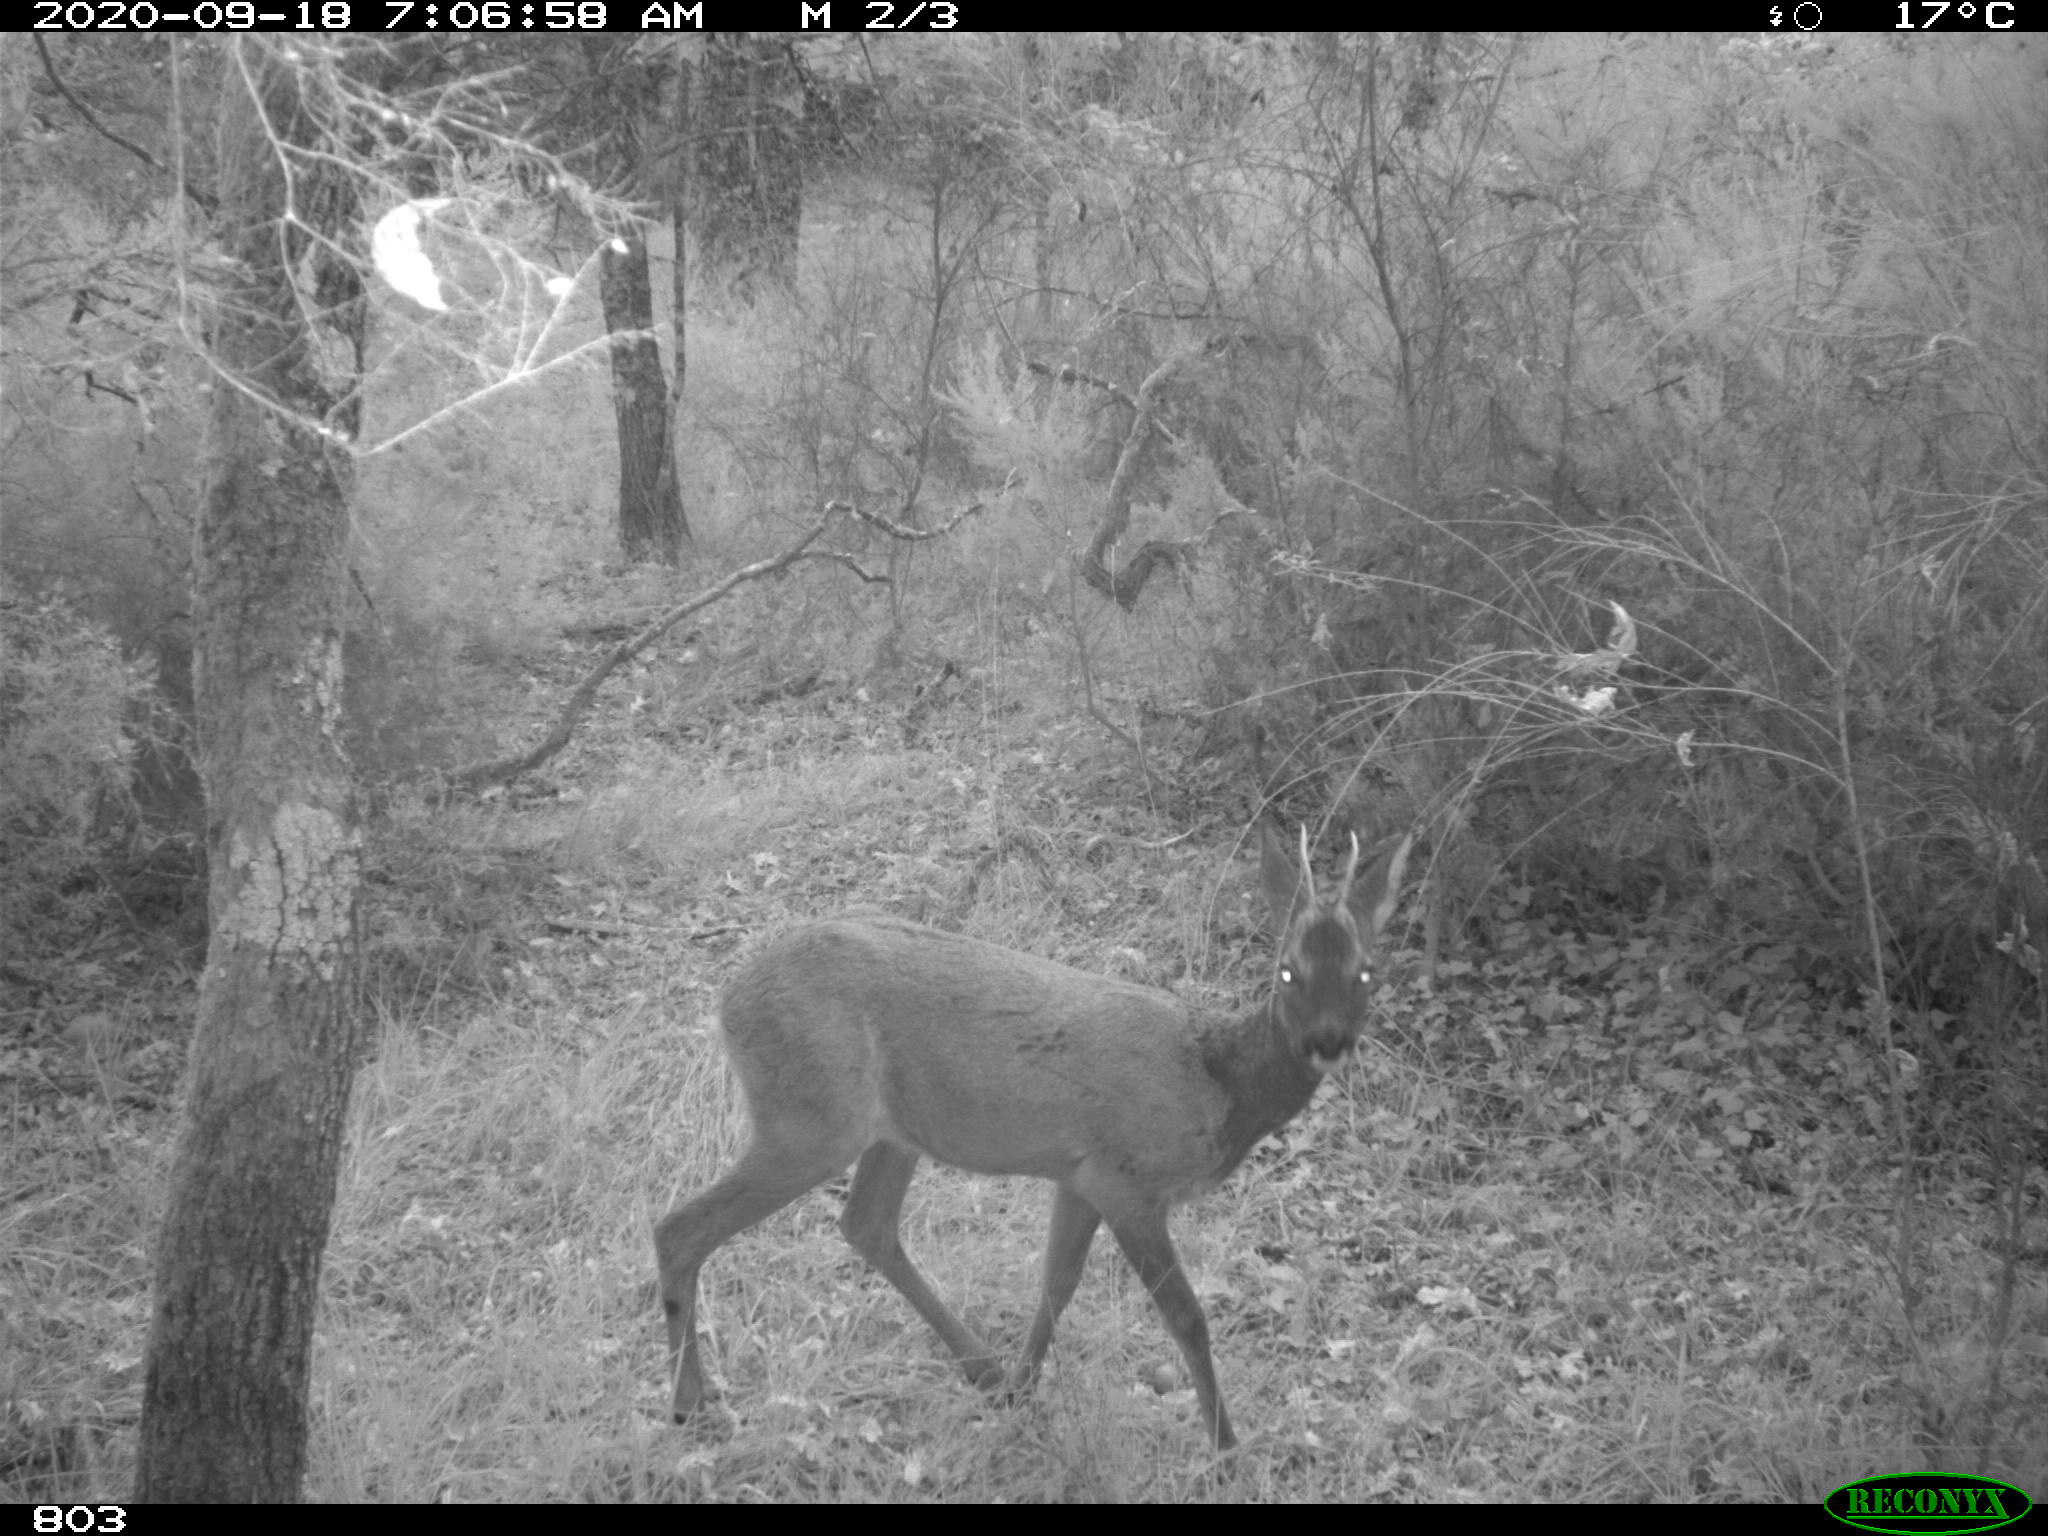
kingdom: Animalia
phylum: Chordata
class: Mammalia
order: Artiodactyla
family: Cervidae
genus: Capreolus
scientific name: Capreolus capreolus
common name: Western roe deer
